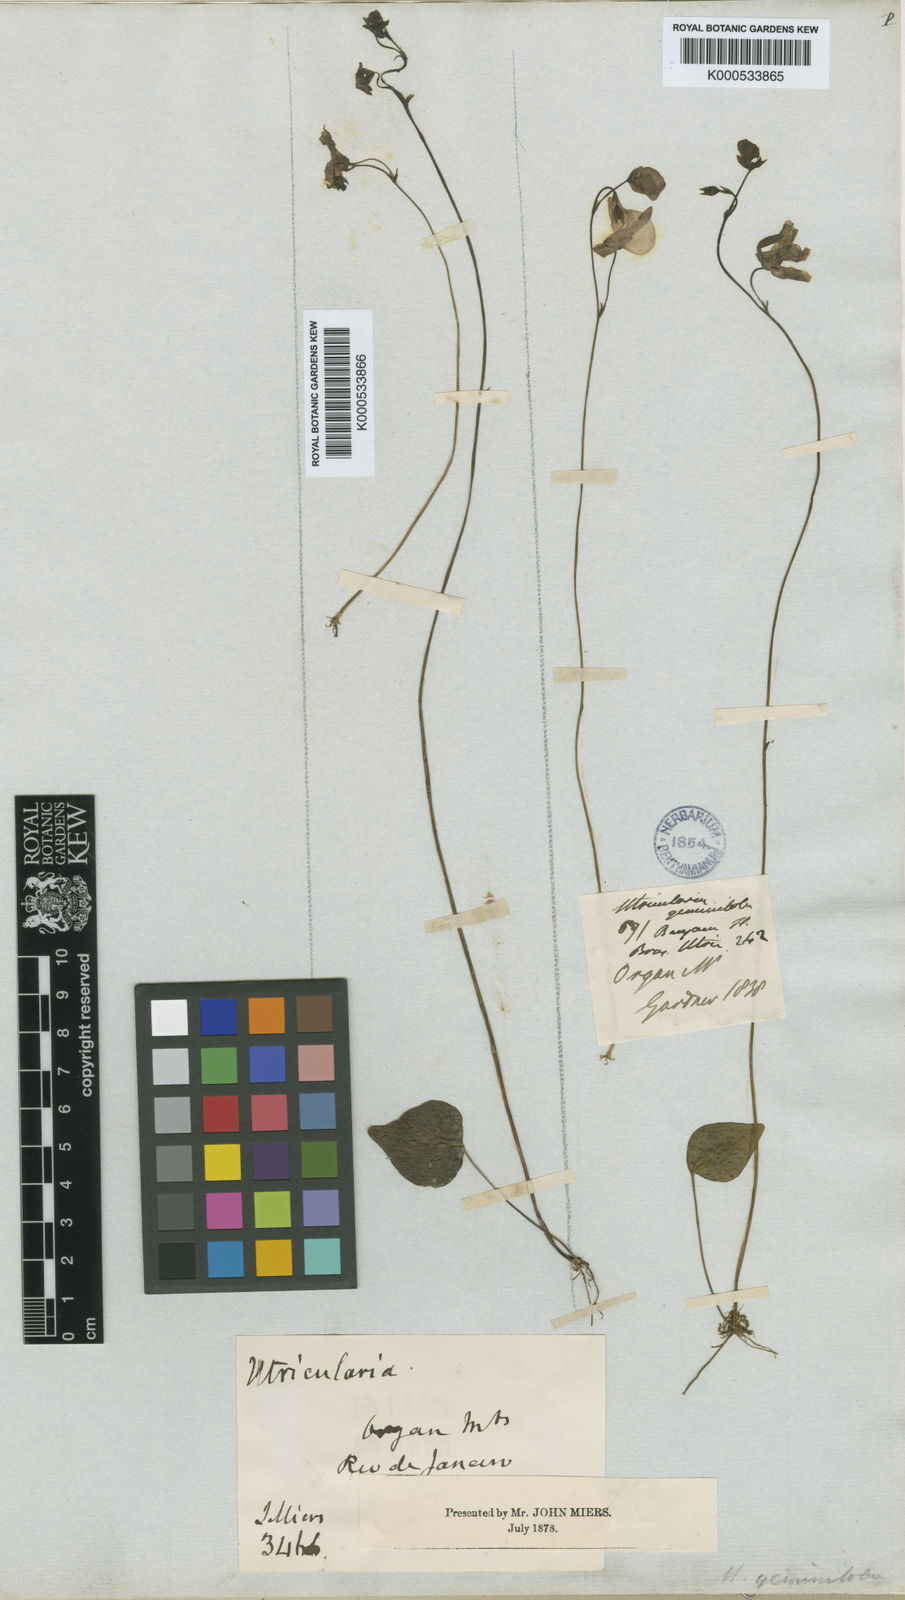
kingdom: Plantae
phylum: Tracheophyta
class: Magnoliopsida
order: Lamiales
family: Lentibulariaceae
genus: Utricularia
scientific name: Utricularia geminiloba
